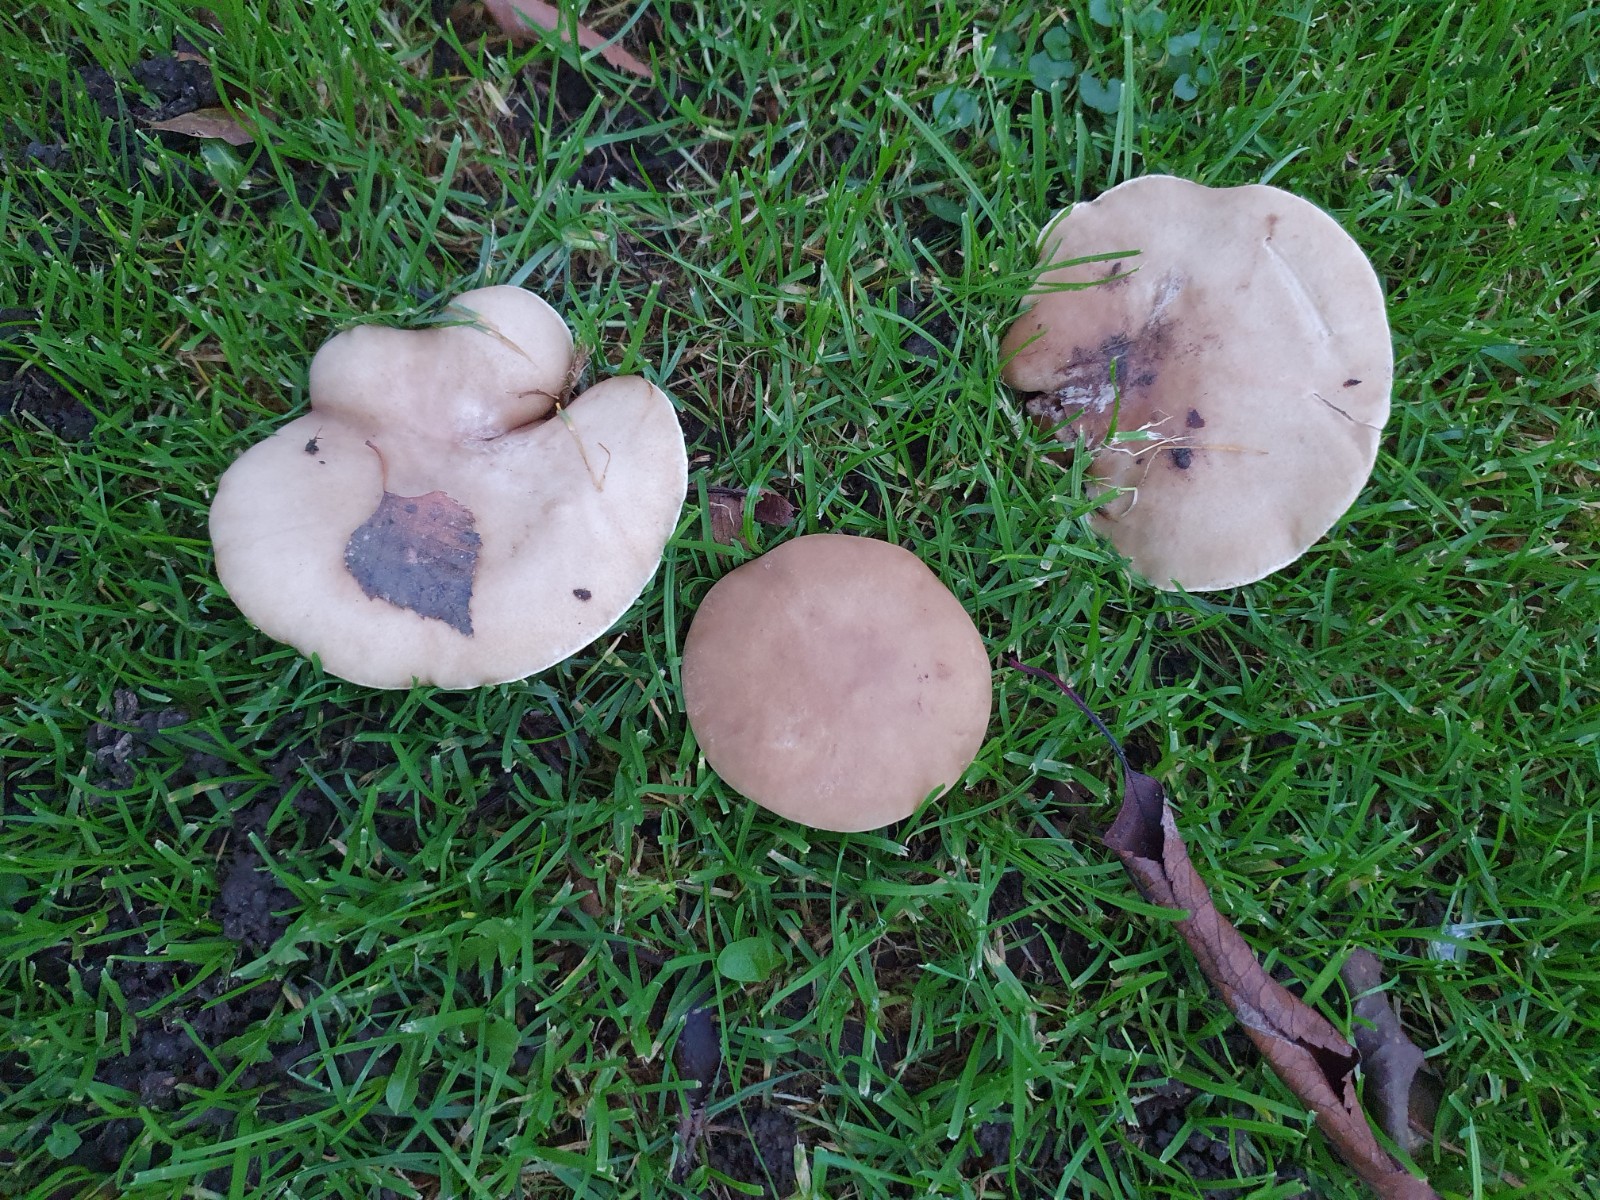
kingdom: Fungi
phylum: Basidiomycota
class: Agaricomycetes
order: Agaricales
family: Tricholomataceae
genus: Lepista
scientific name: Lepista personata
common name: bleg hekseringshat
